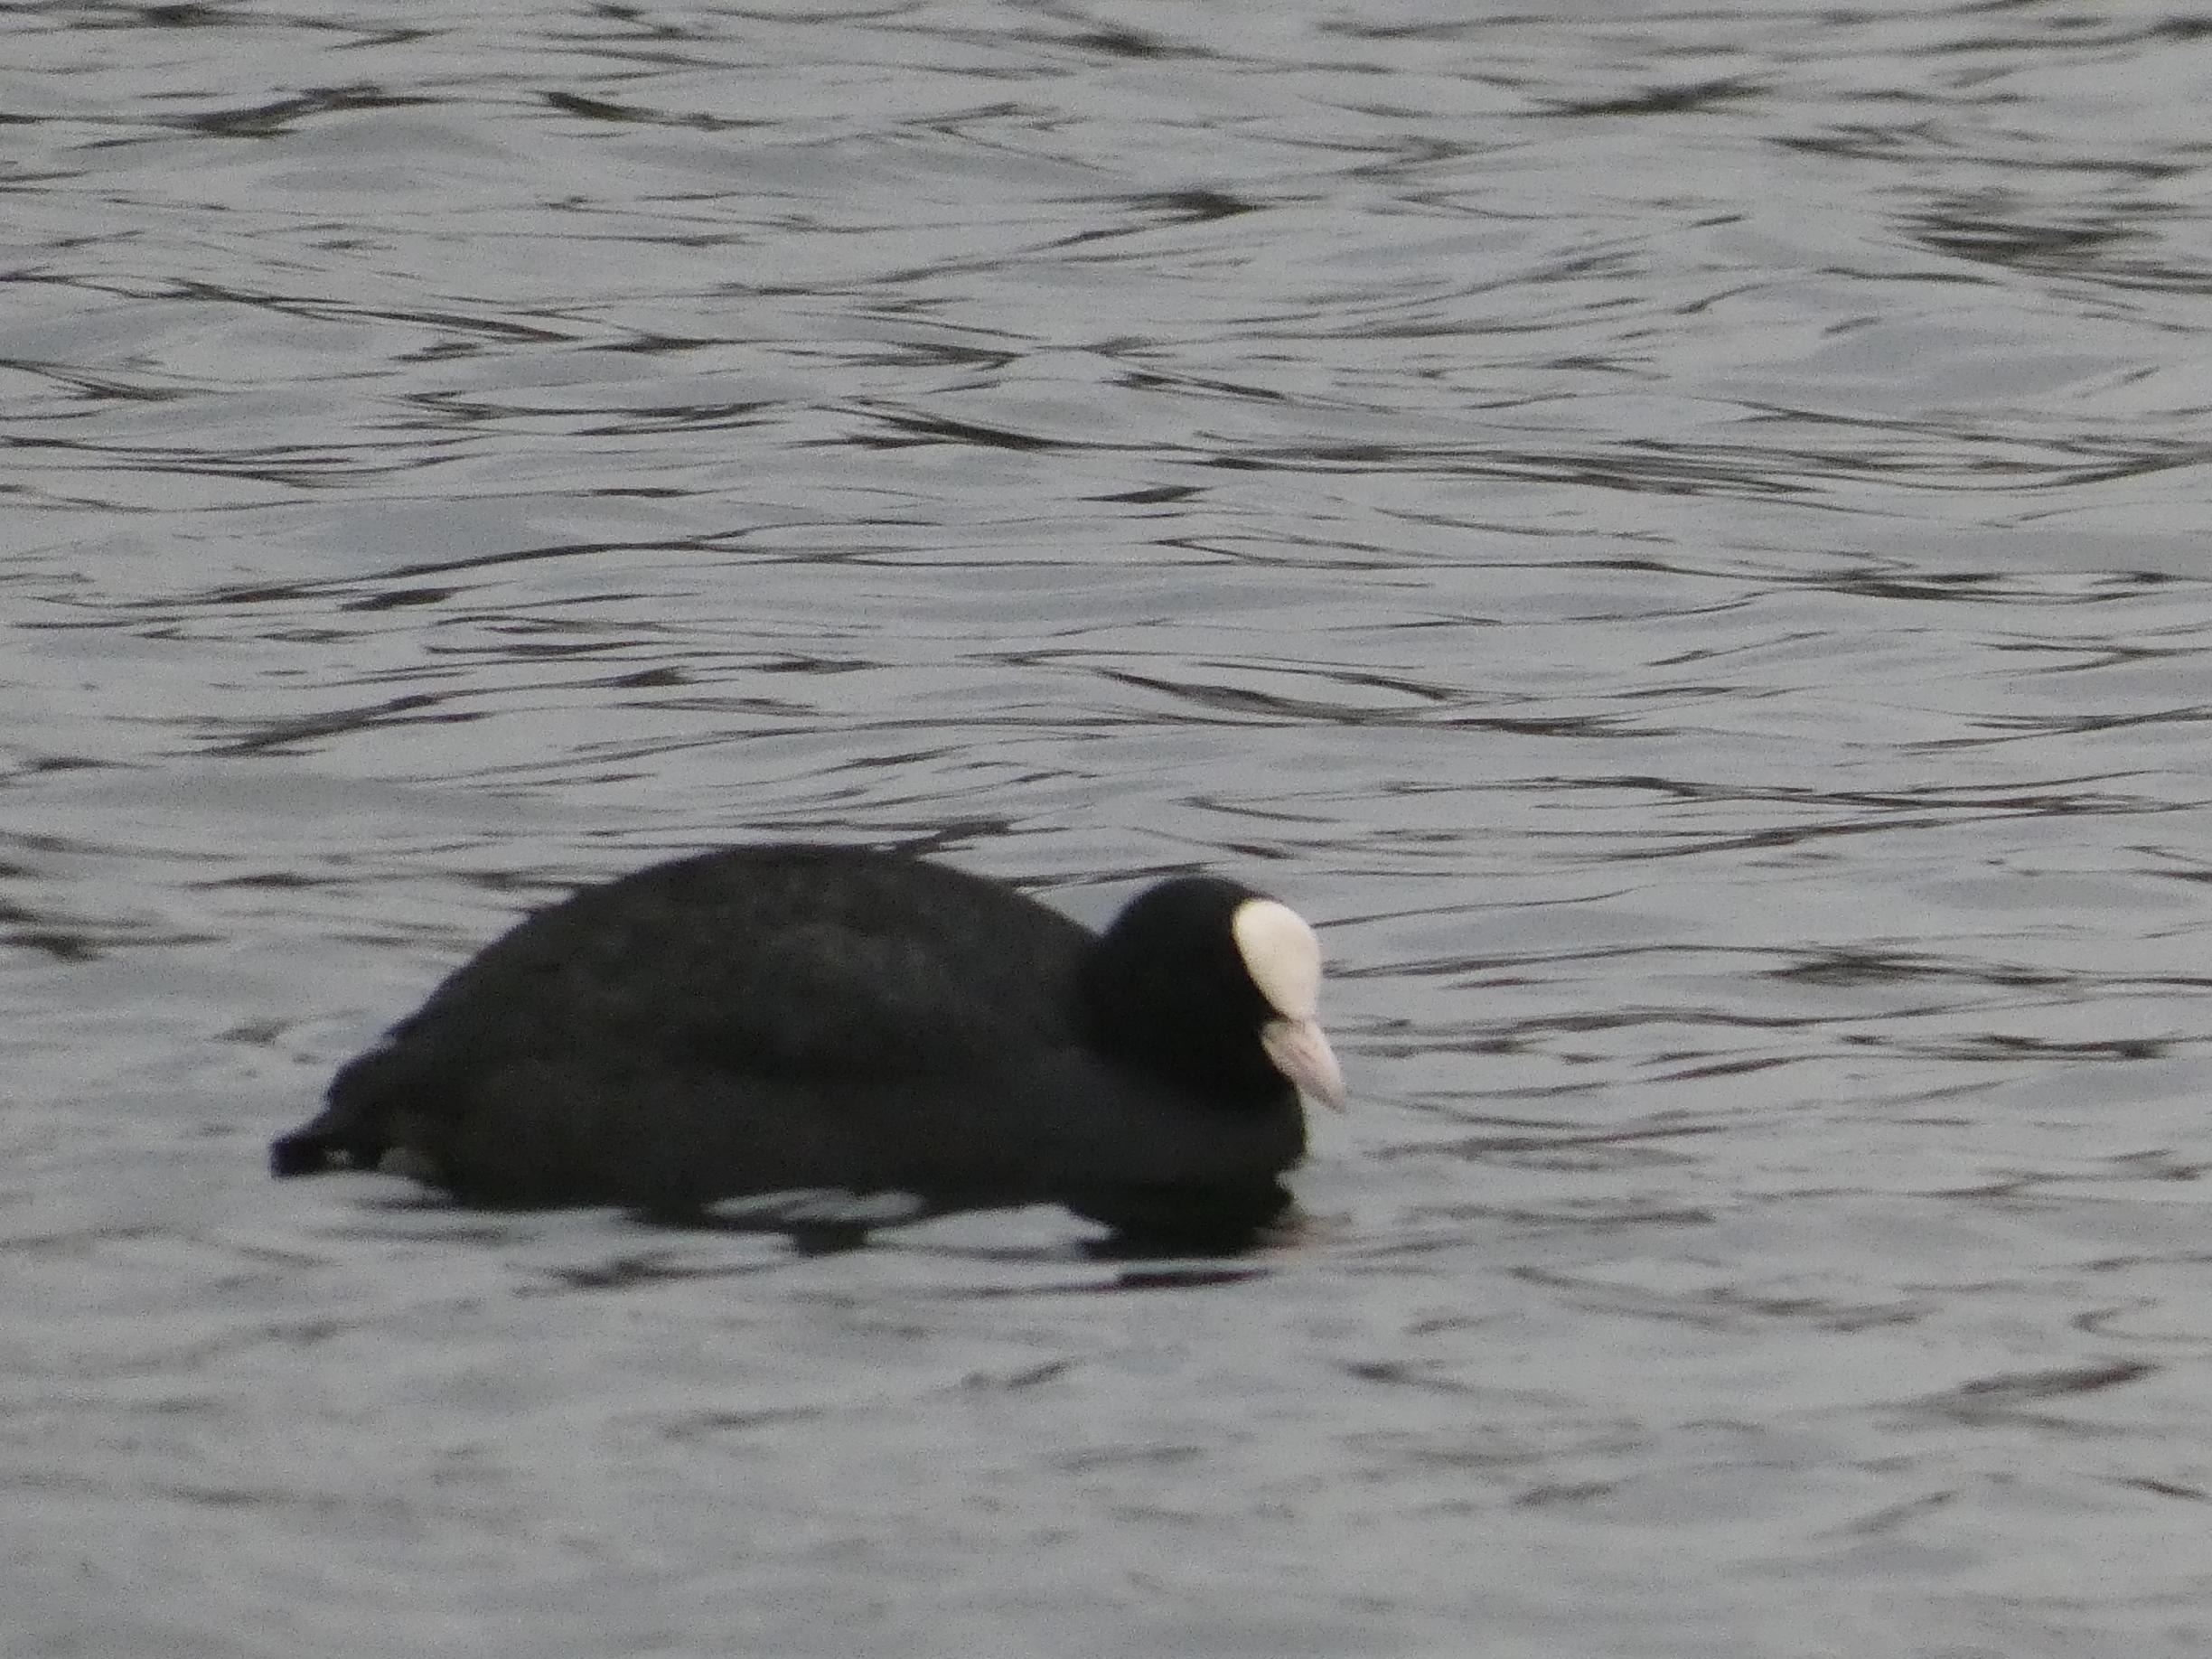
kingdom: Animalia
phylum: Chordata
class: Aves
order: Gruiformes
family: Rallidae
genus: Fulica
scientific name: Fulica atra
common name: Blishøne
